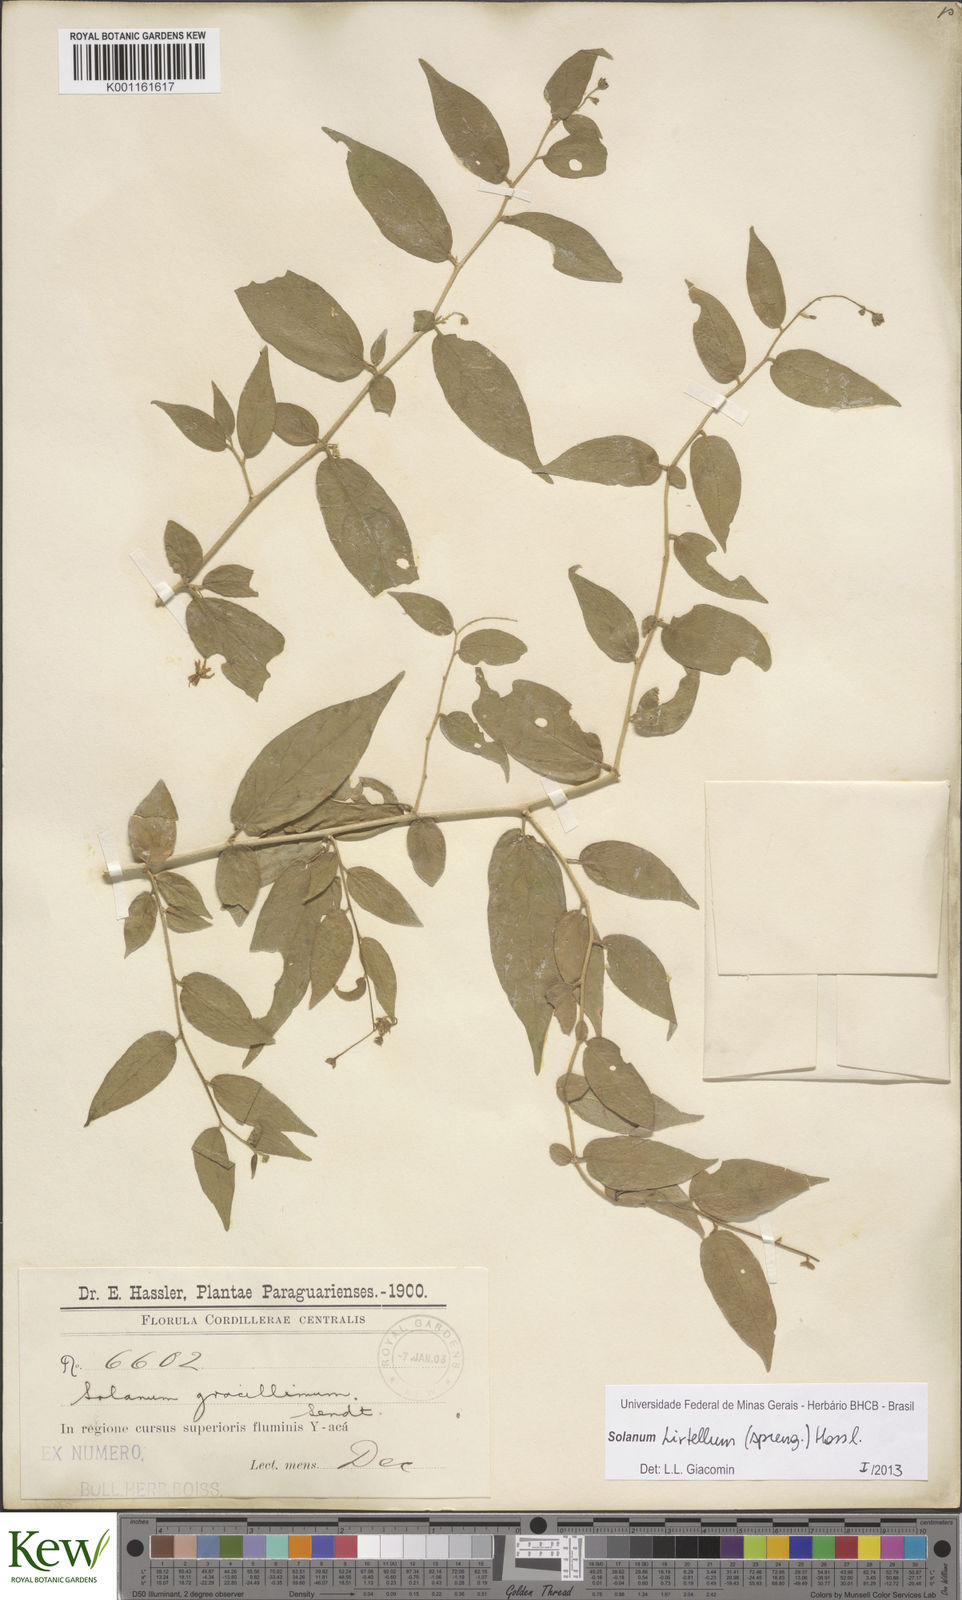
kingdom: Plantae
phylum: Tracheophyta
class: Magnoliopsida
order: Solanales
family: Solanaceae
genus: Solanum
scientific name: Solanum hirtellum
